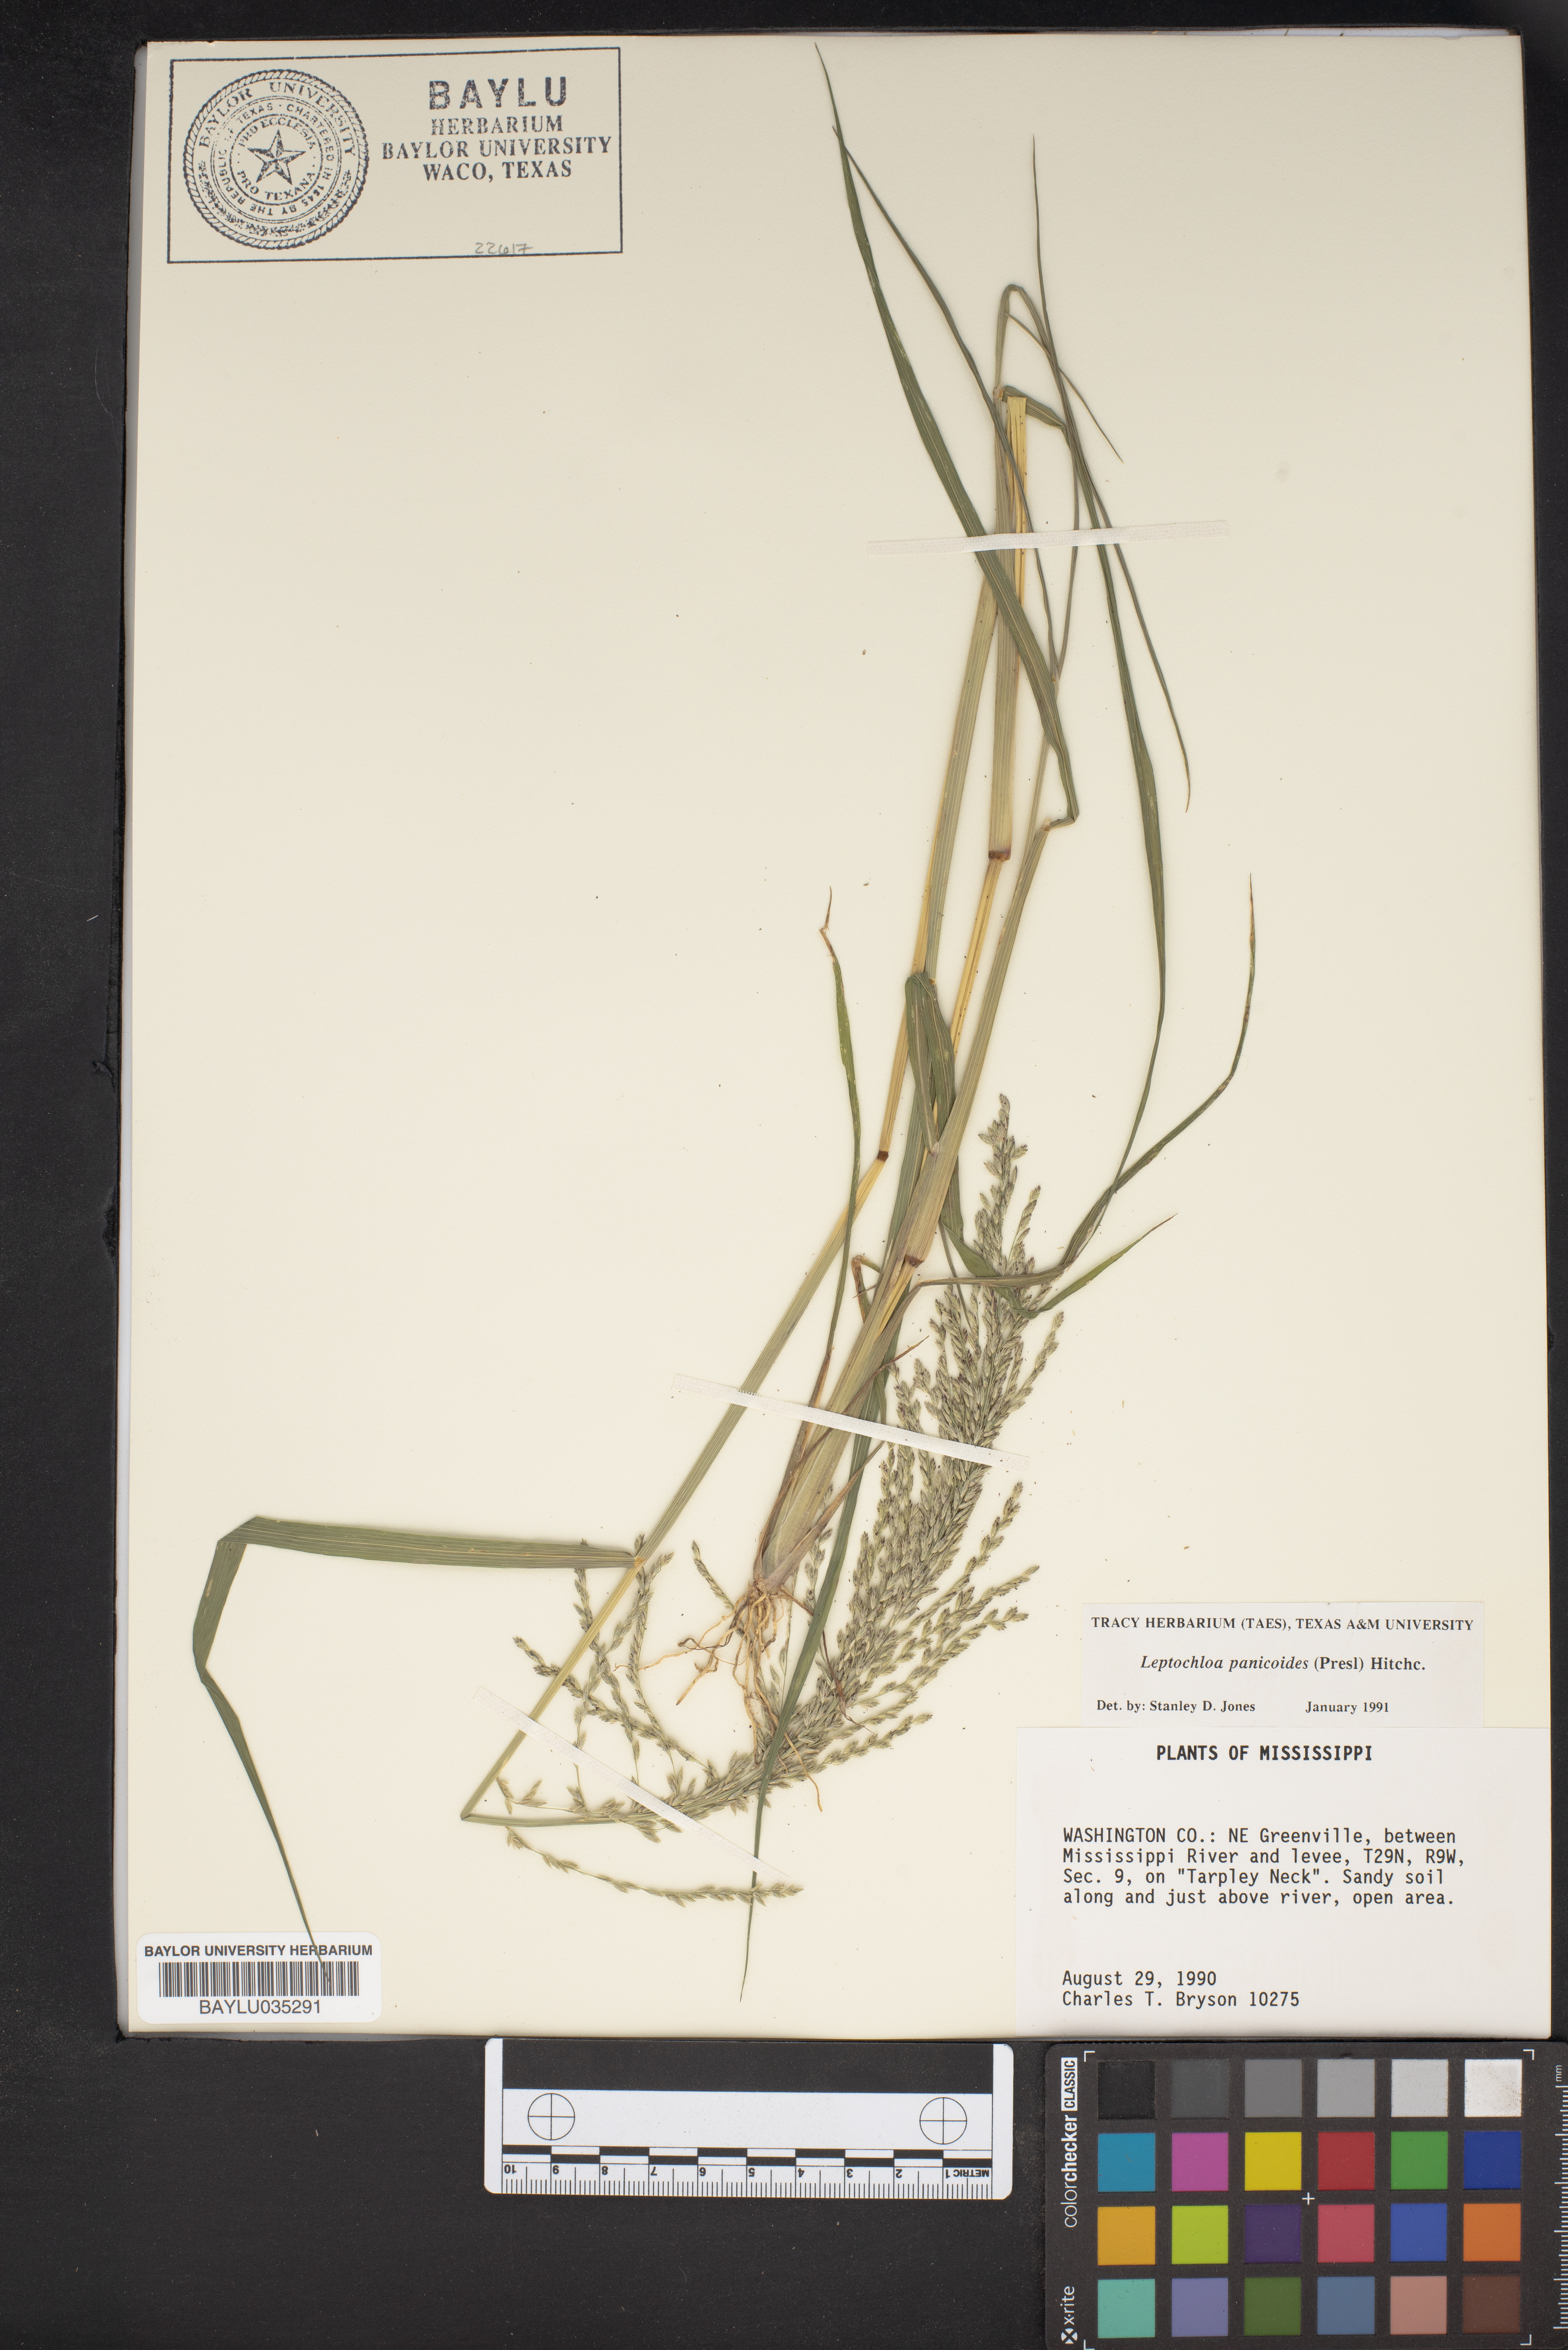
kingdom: Plantae
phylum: Tracheophyta
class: Liliopsida
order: Poales
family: Poaceae
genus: Arundinella
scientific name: Arundinella leptochloa
